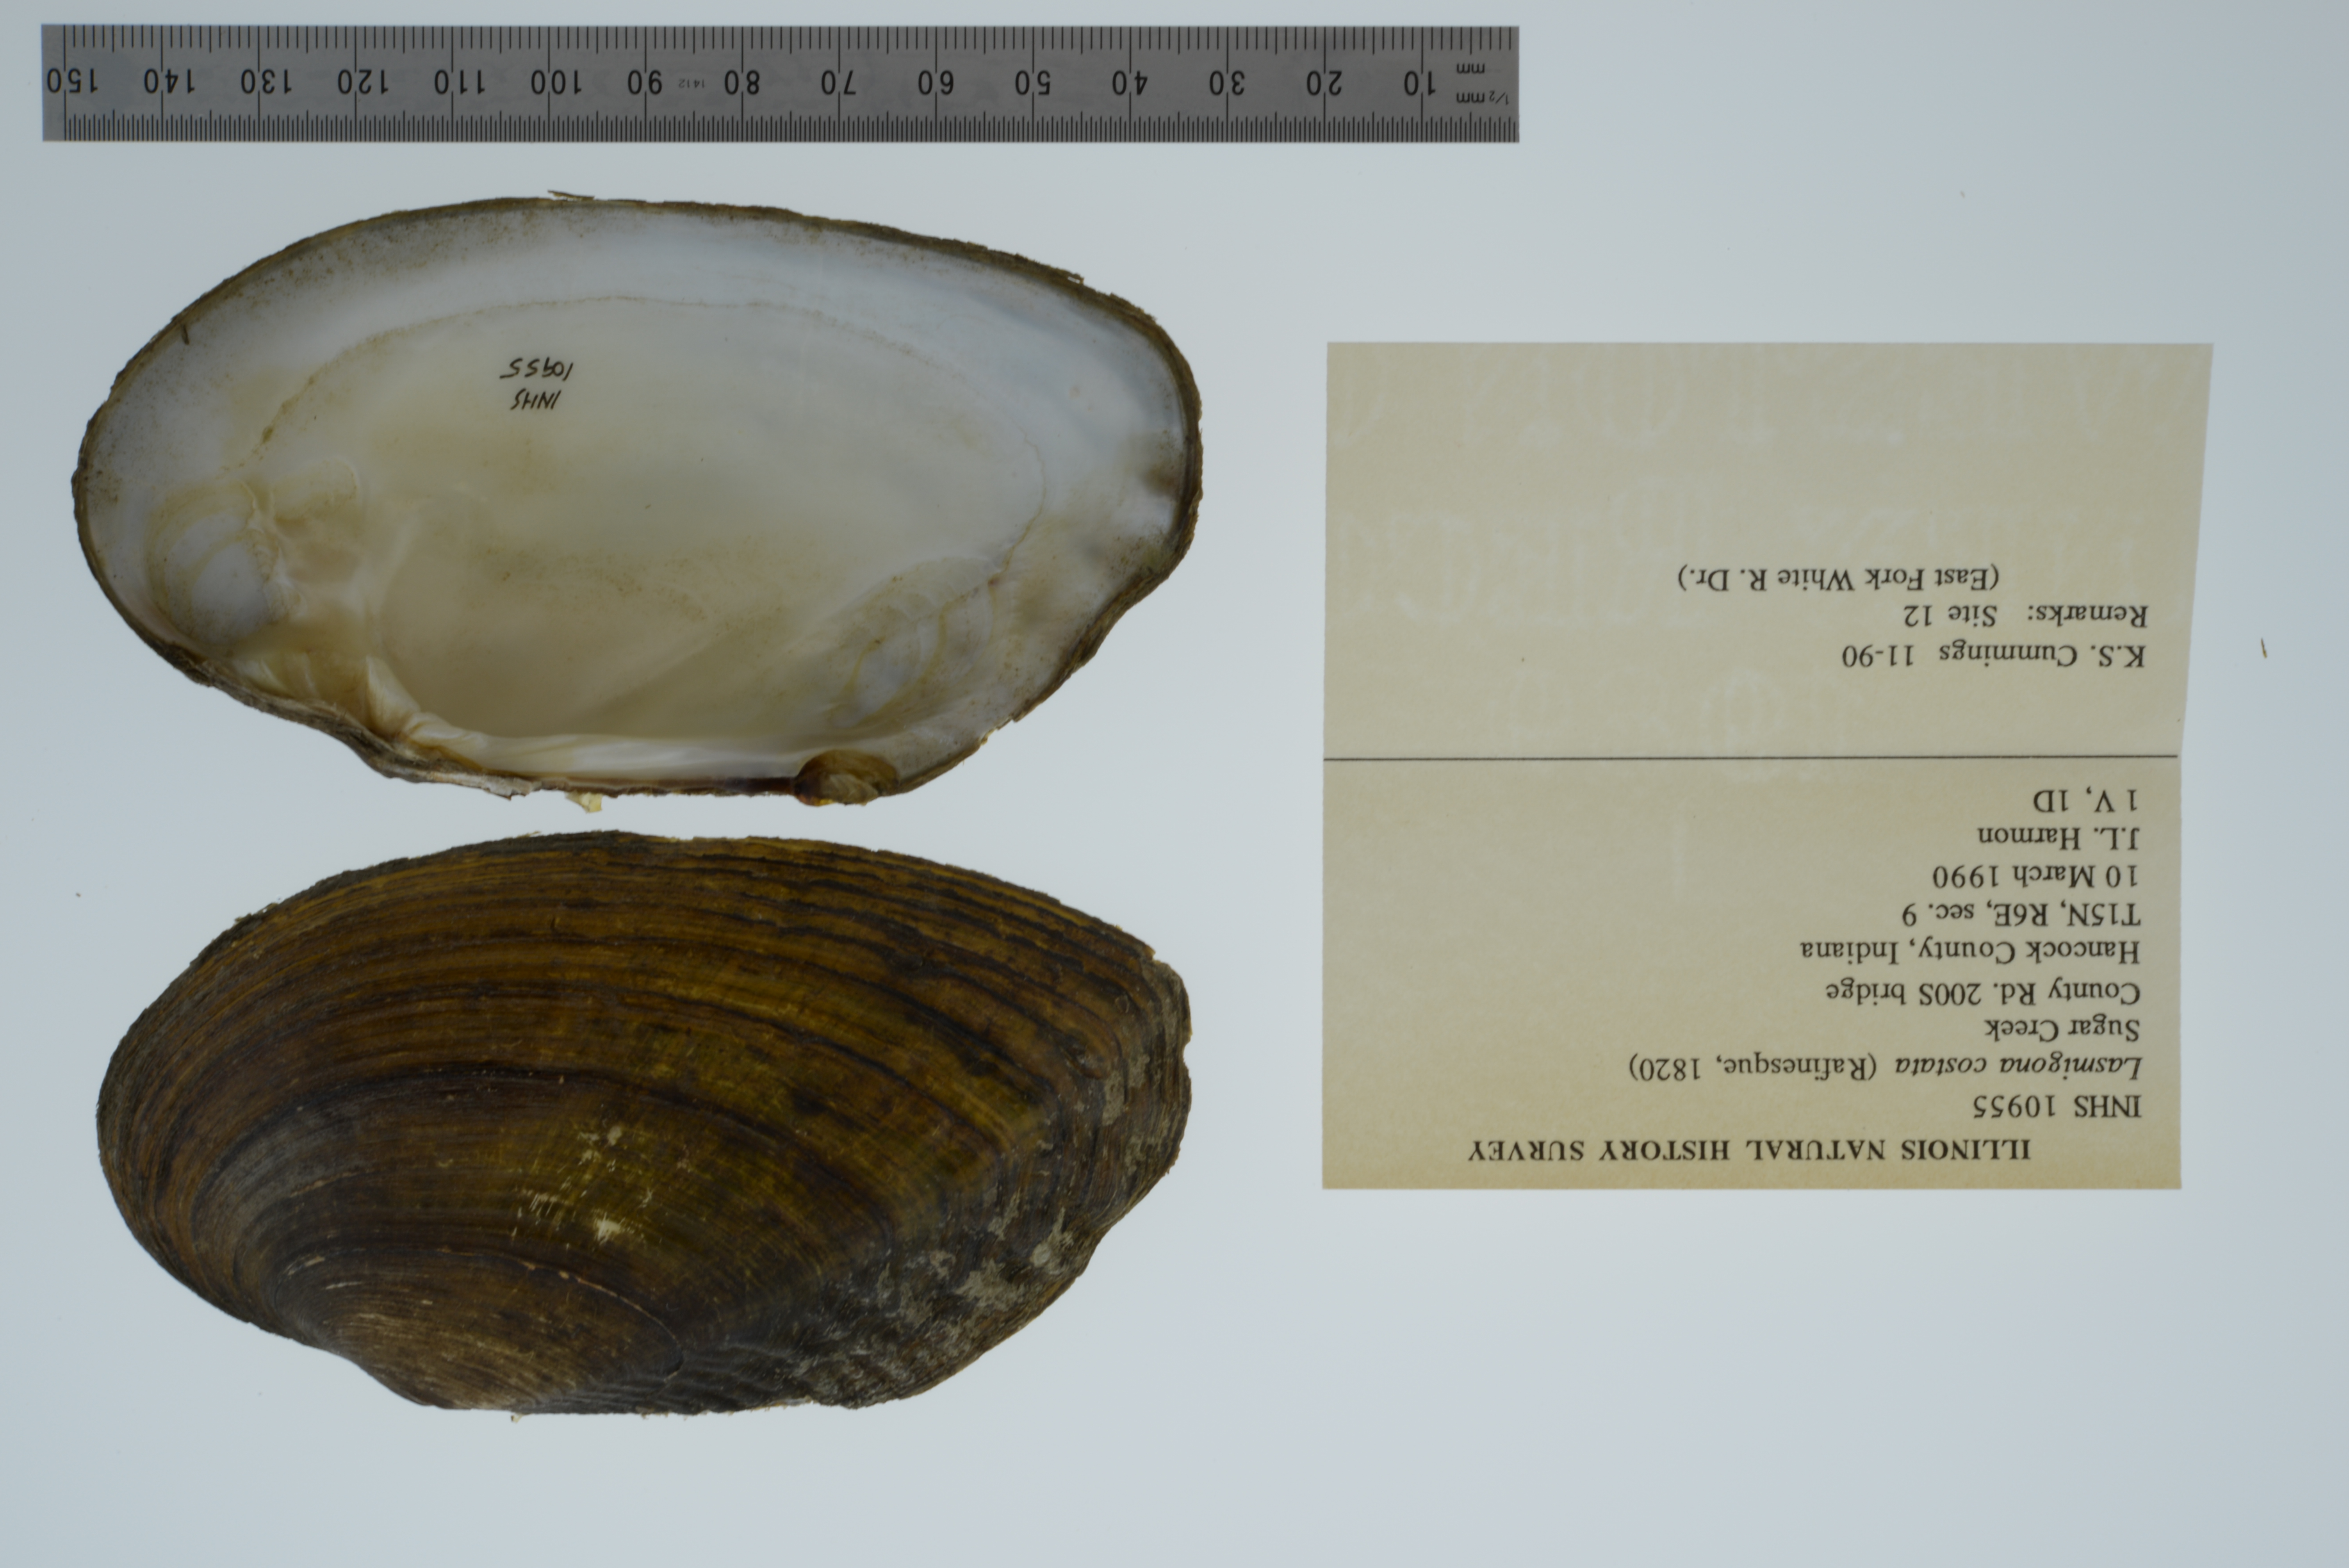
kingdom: Animalia
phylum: Mollusca
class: Bivalvia
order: Unionida
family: Unionidae
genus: Lasmigona
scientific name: Lasmigona costata
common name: Flutedshell
